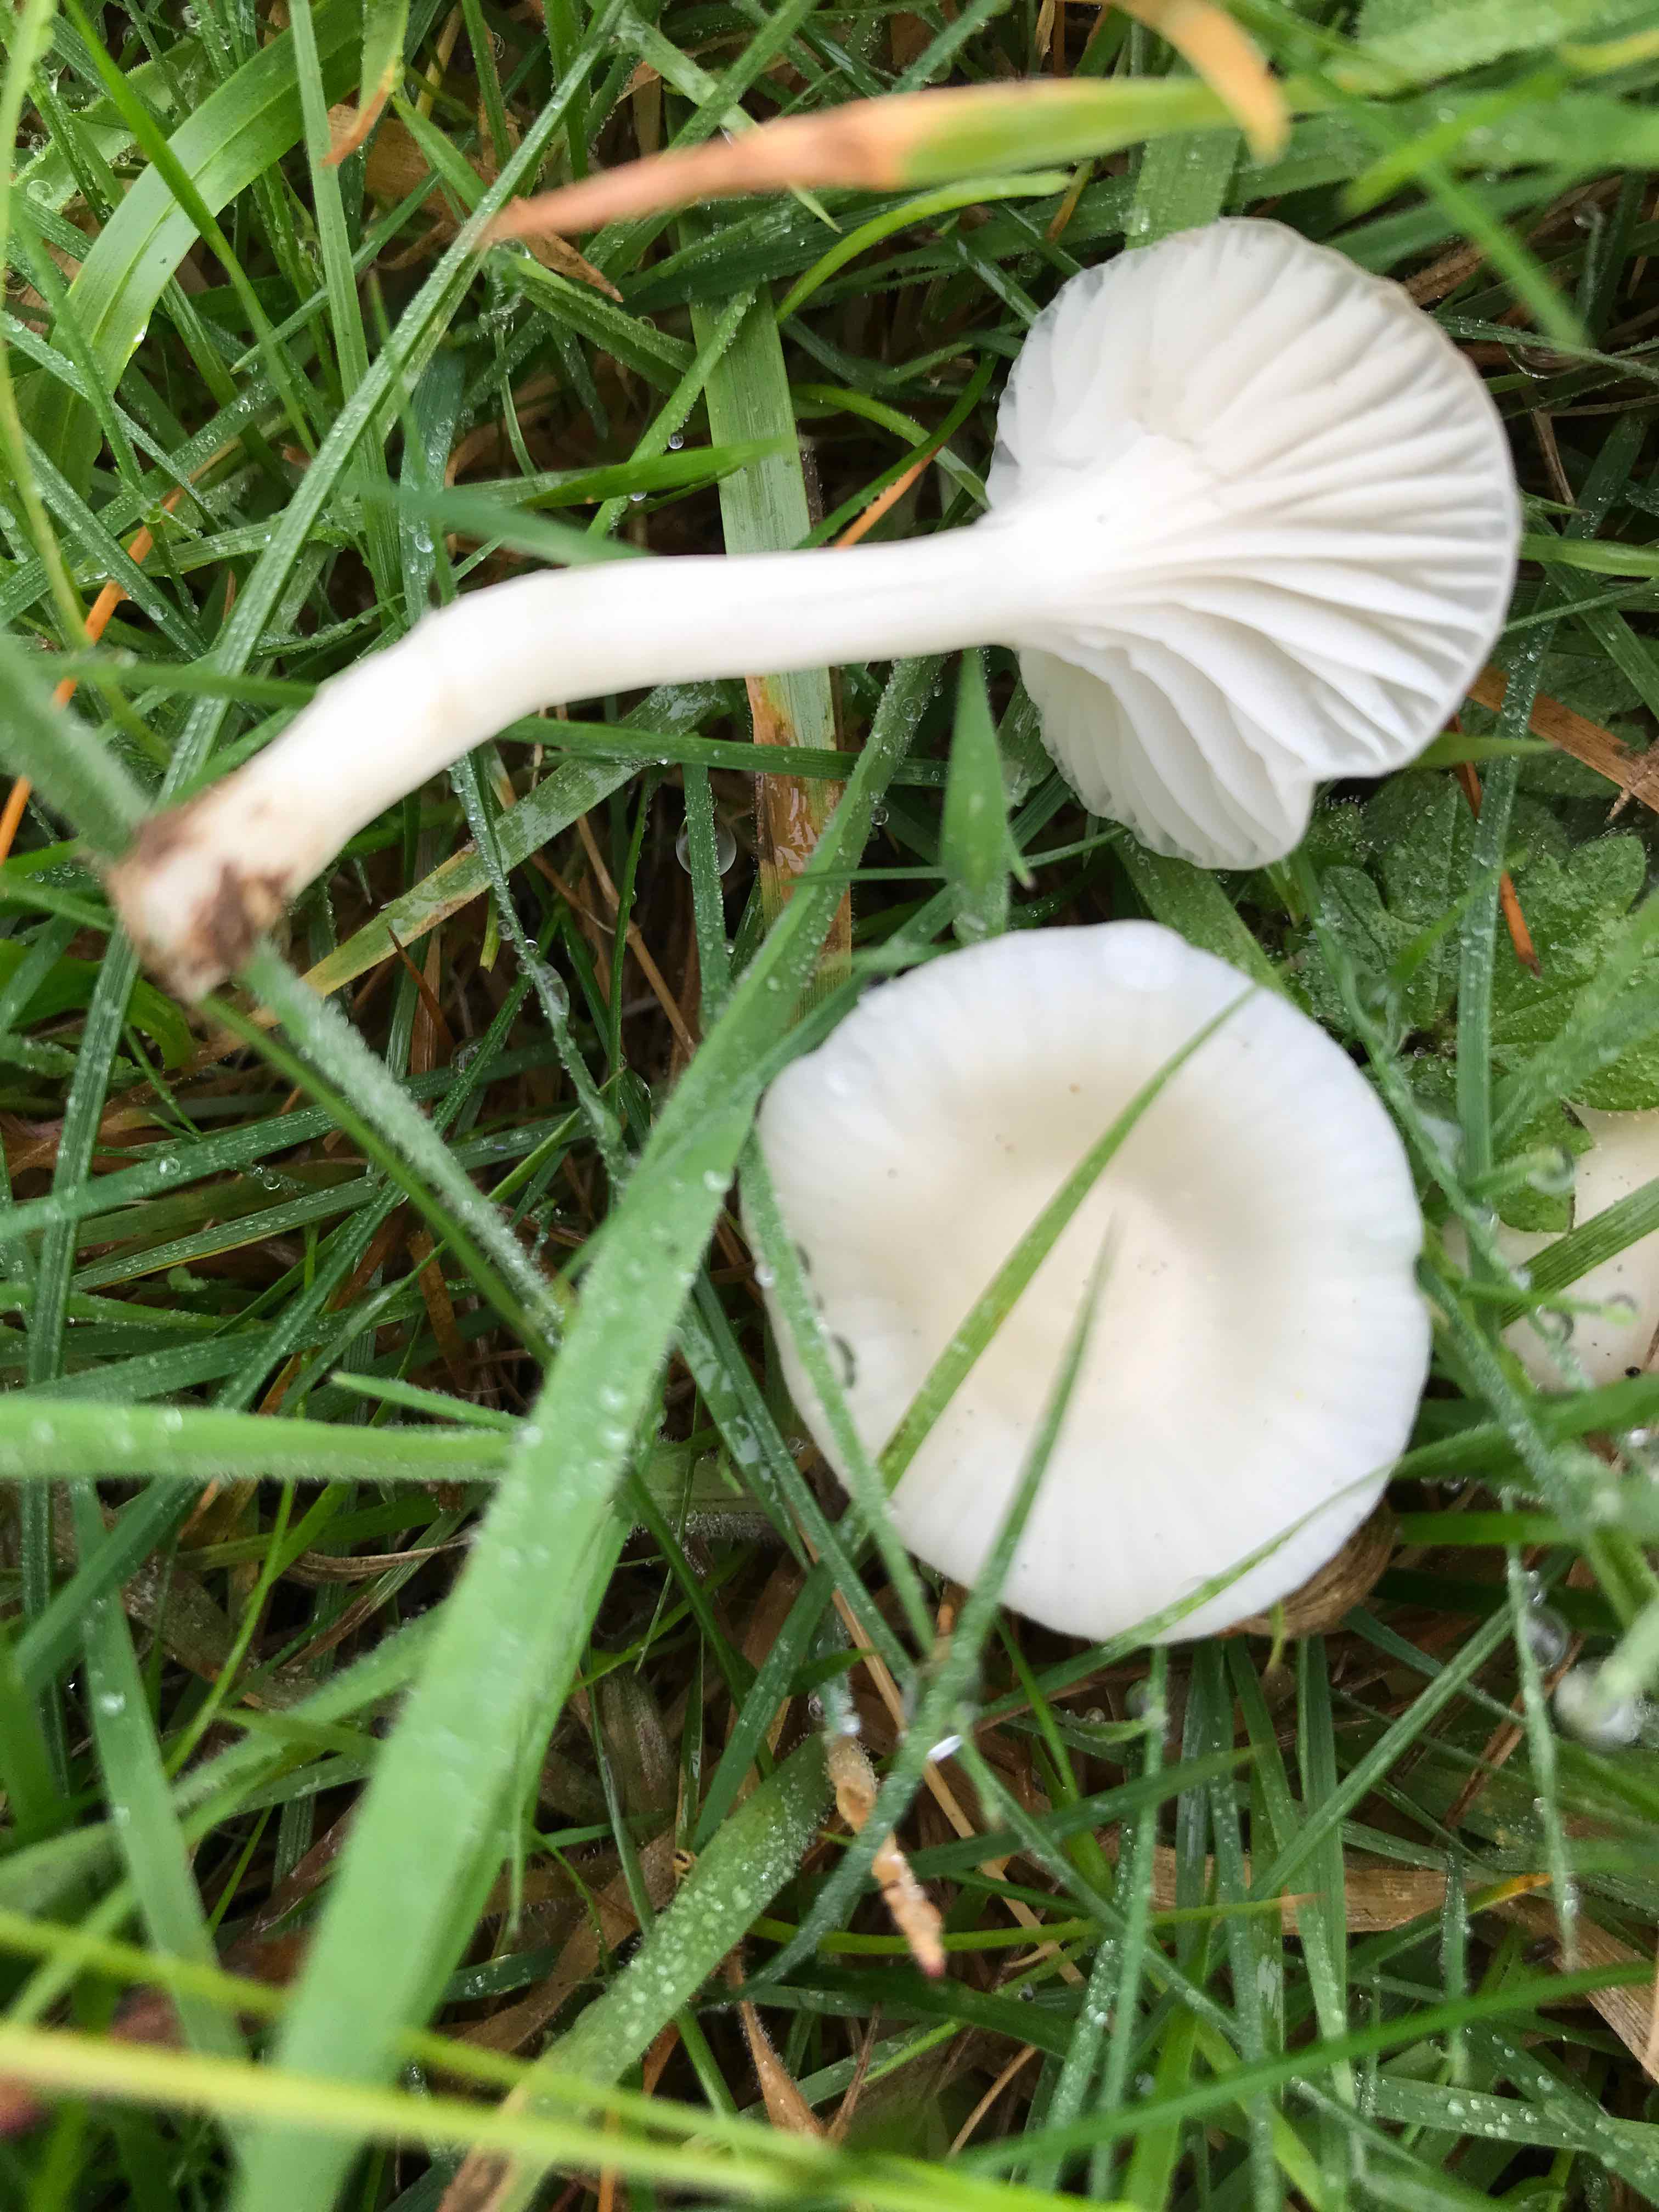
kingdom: Fungi
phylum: Basidiomycota
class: Agaricomycetes
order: Agaricales
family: Hygrophoraceae
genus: Cuphophyllus
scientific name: Cuphophyllus virgineus
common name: snehvid vokshat
